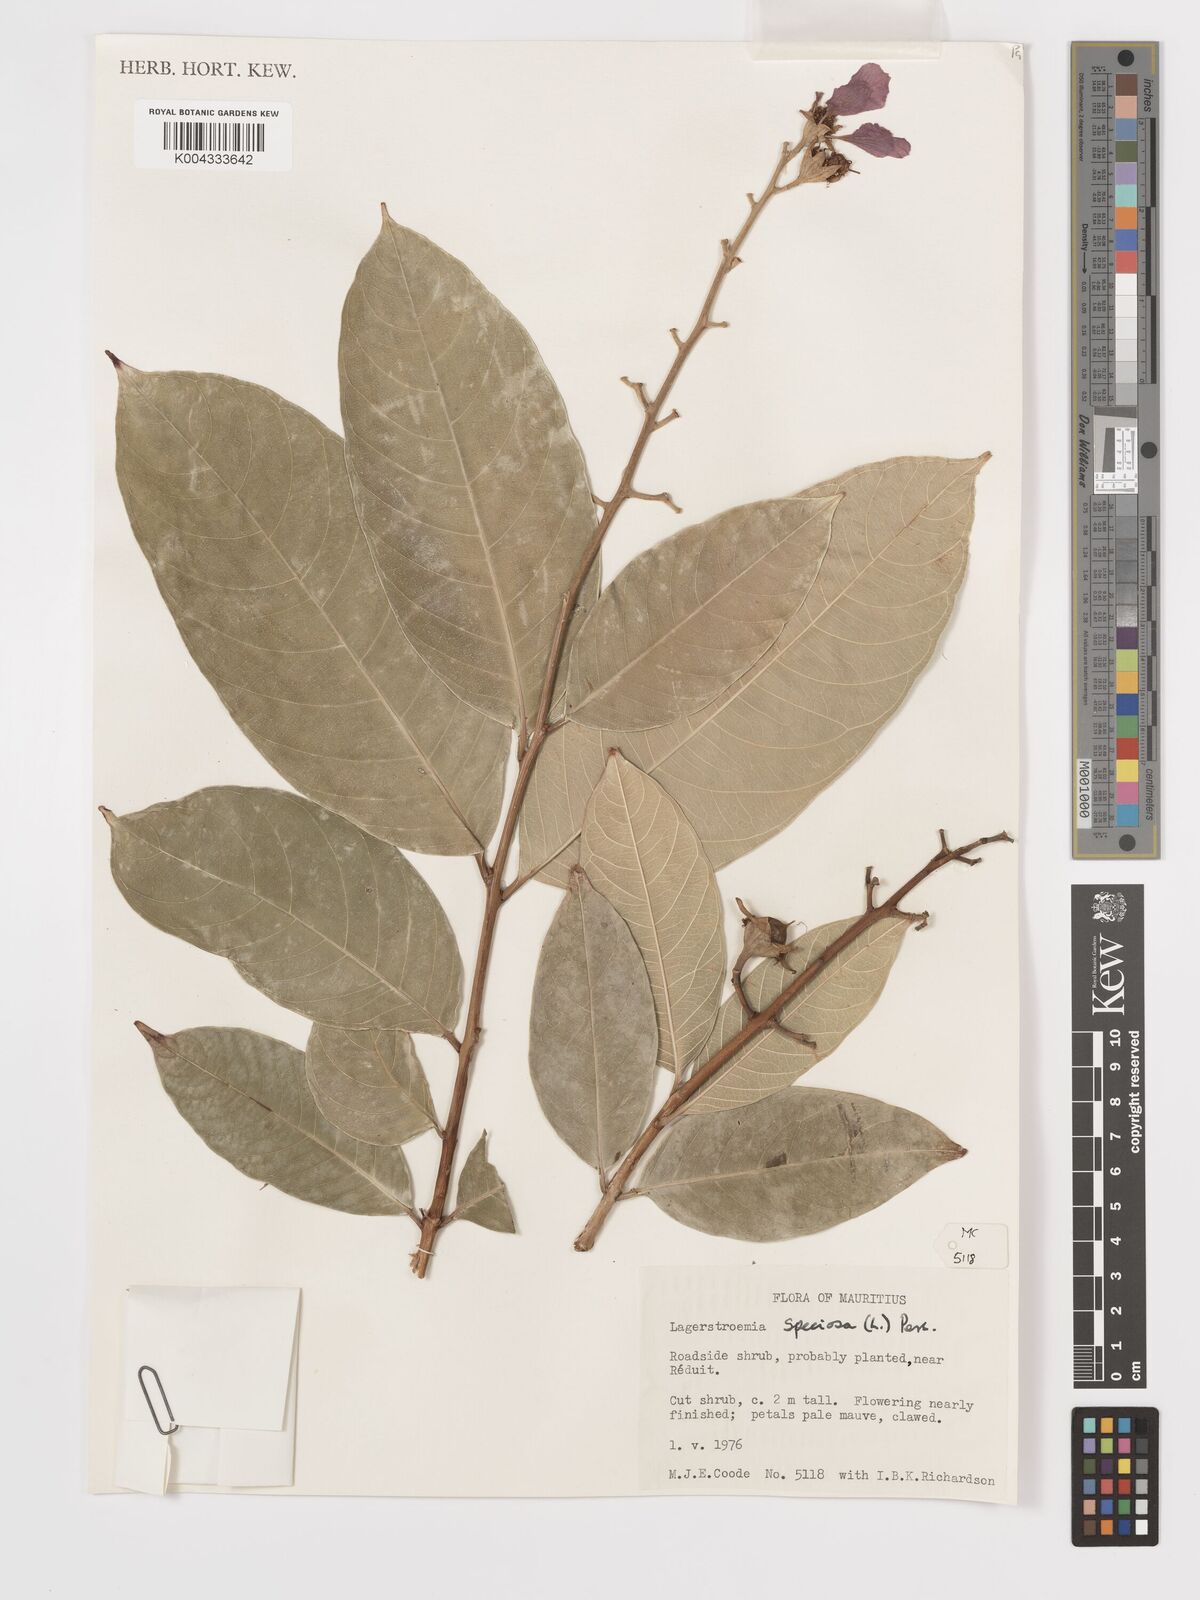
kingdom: Plantae
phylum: Tracheophyta
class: Magnoliopsida
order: Myrtales
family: Lythraceae
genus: Lagerstroemia
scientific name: Lagerstroemia indica
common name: Crape-myrtle
